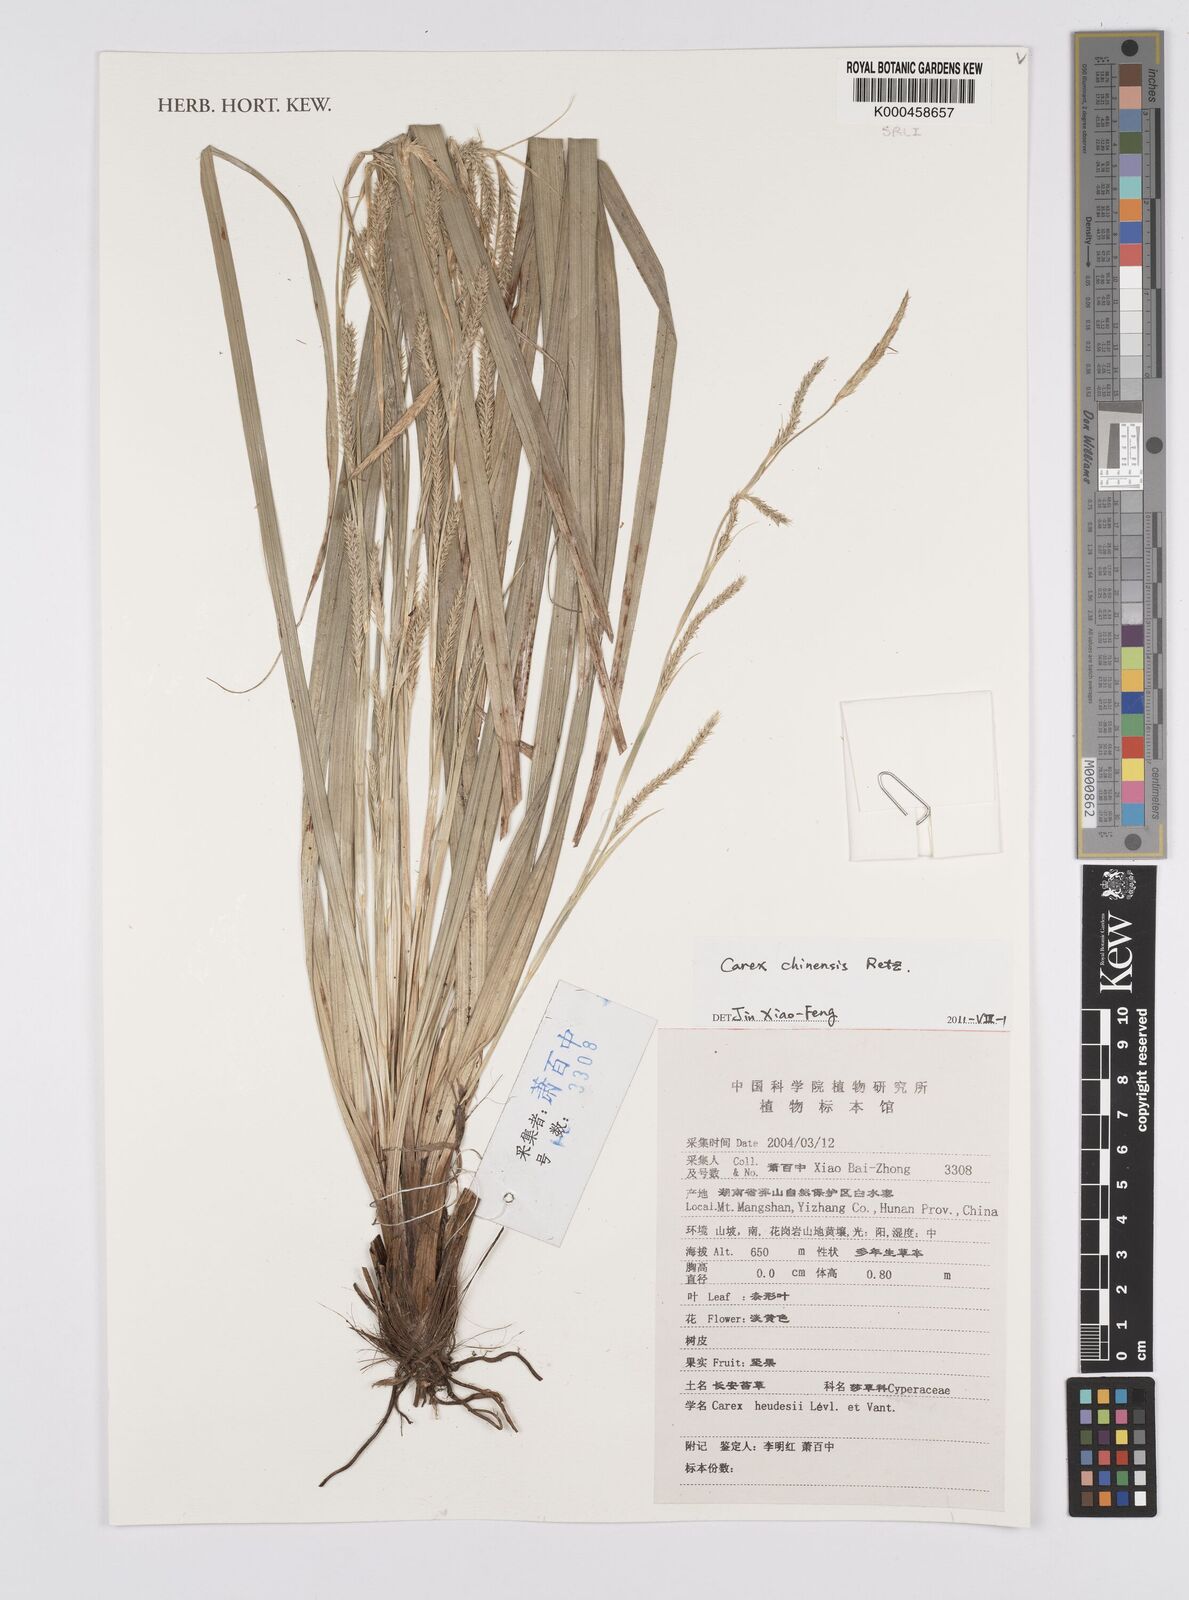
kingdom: Plantae
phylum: Tracheophyta
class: Liliopsida
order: Poales
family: Cyperaceae
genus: Carex
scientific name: Carex chinensis
